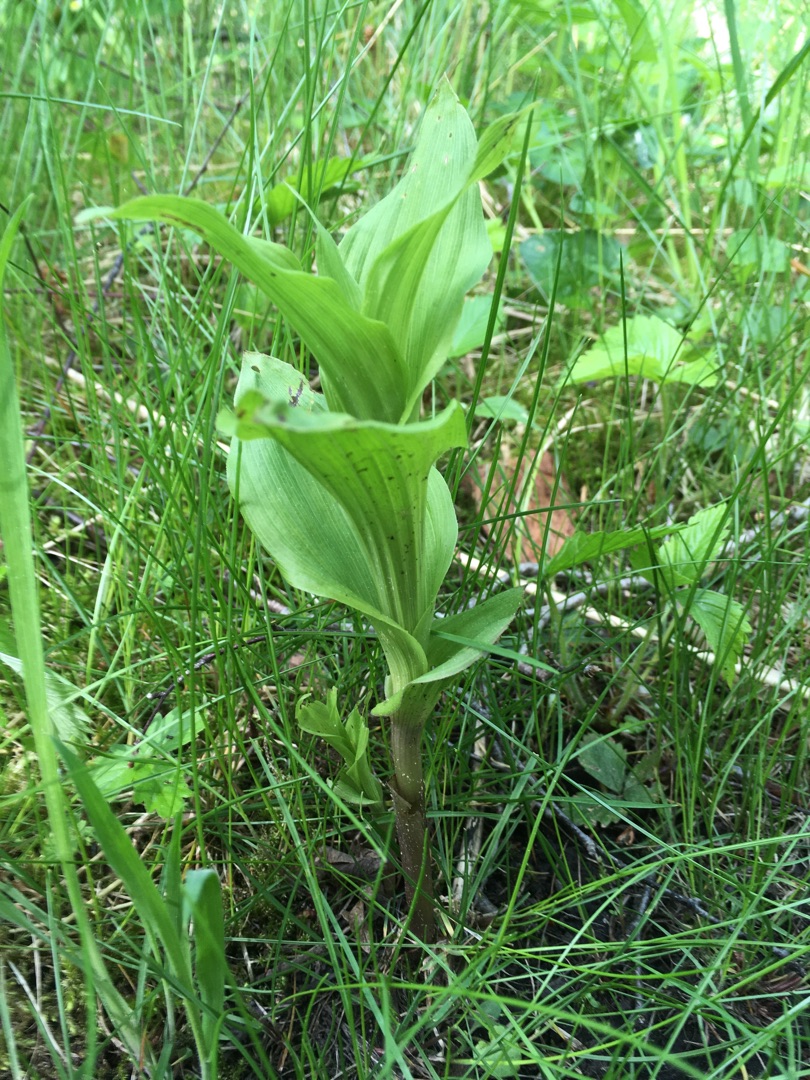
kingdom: Plantae
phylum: Tracheophyta
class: Liliopsida
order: Asparagales
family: Orchidaceae
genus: Epipactis
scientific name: Epipactis helleborine
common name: Skov-hullæbe
